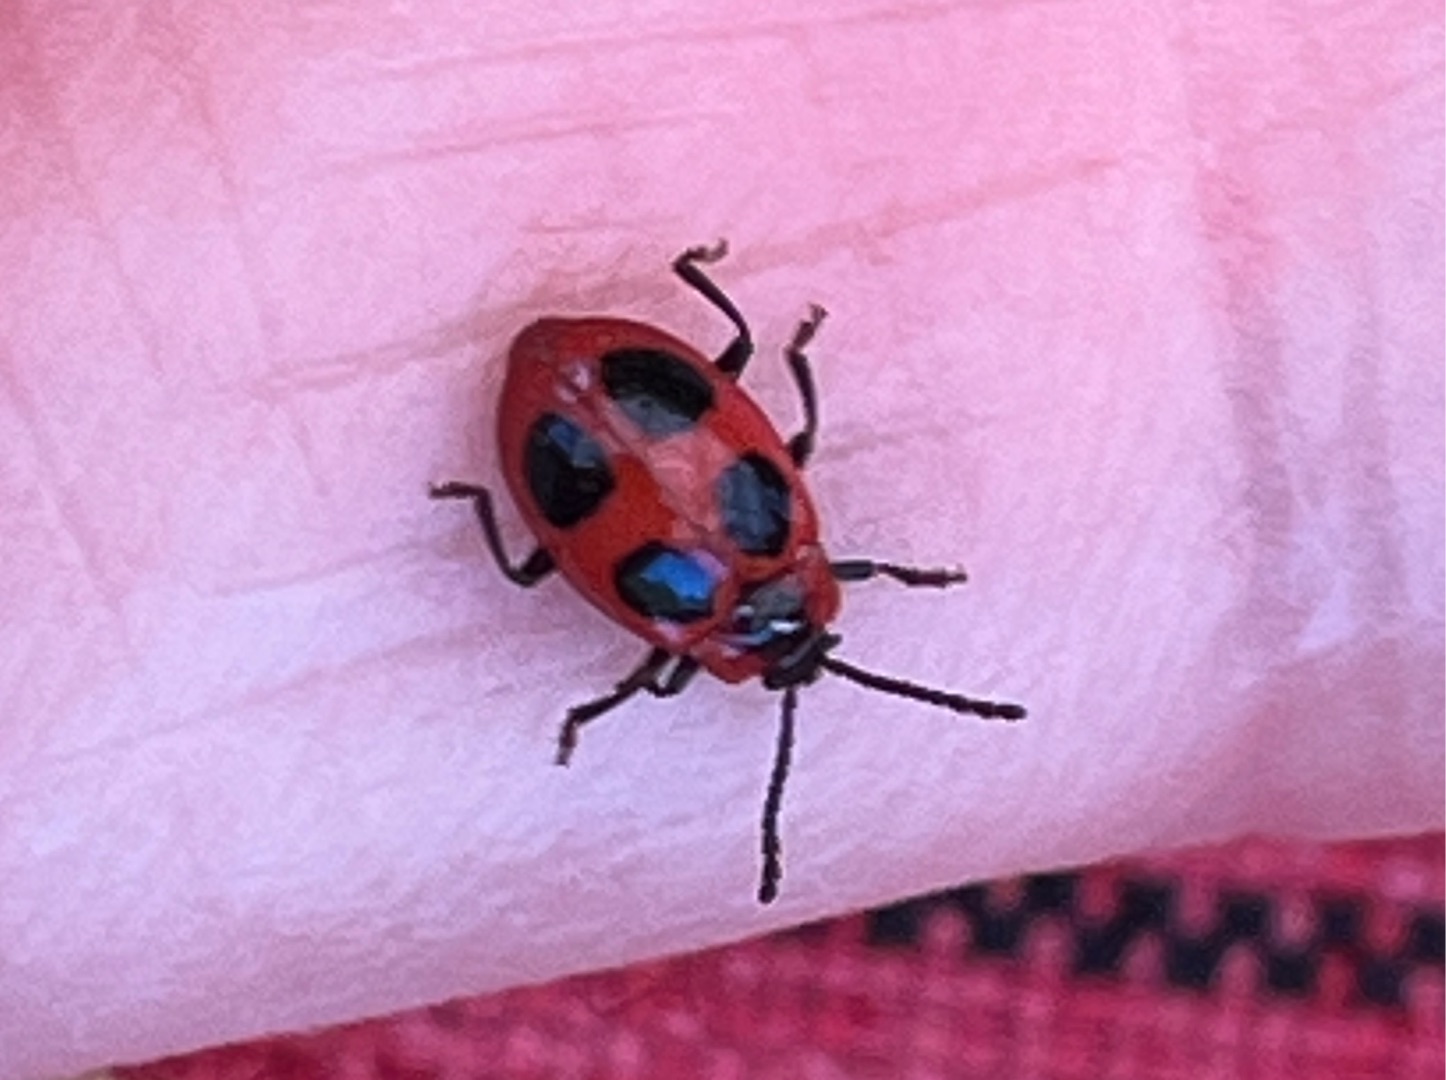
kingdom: Animalia
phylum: Arthropoda
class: Insecta
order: Coleoptera
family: Endomychidae
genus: Endomychus
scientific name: Endomychus coccineus
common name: Skarlagensvampehøne
